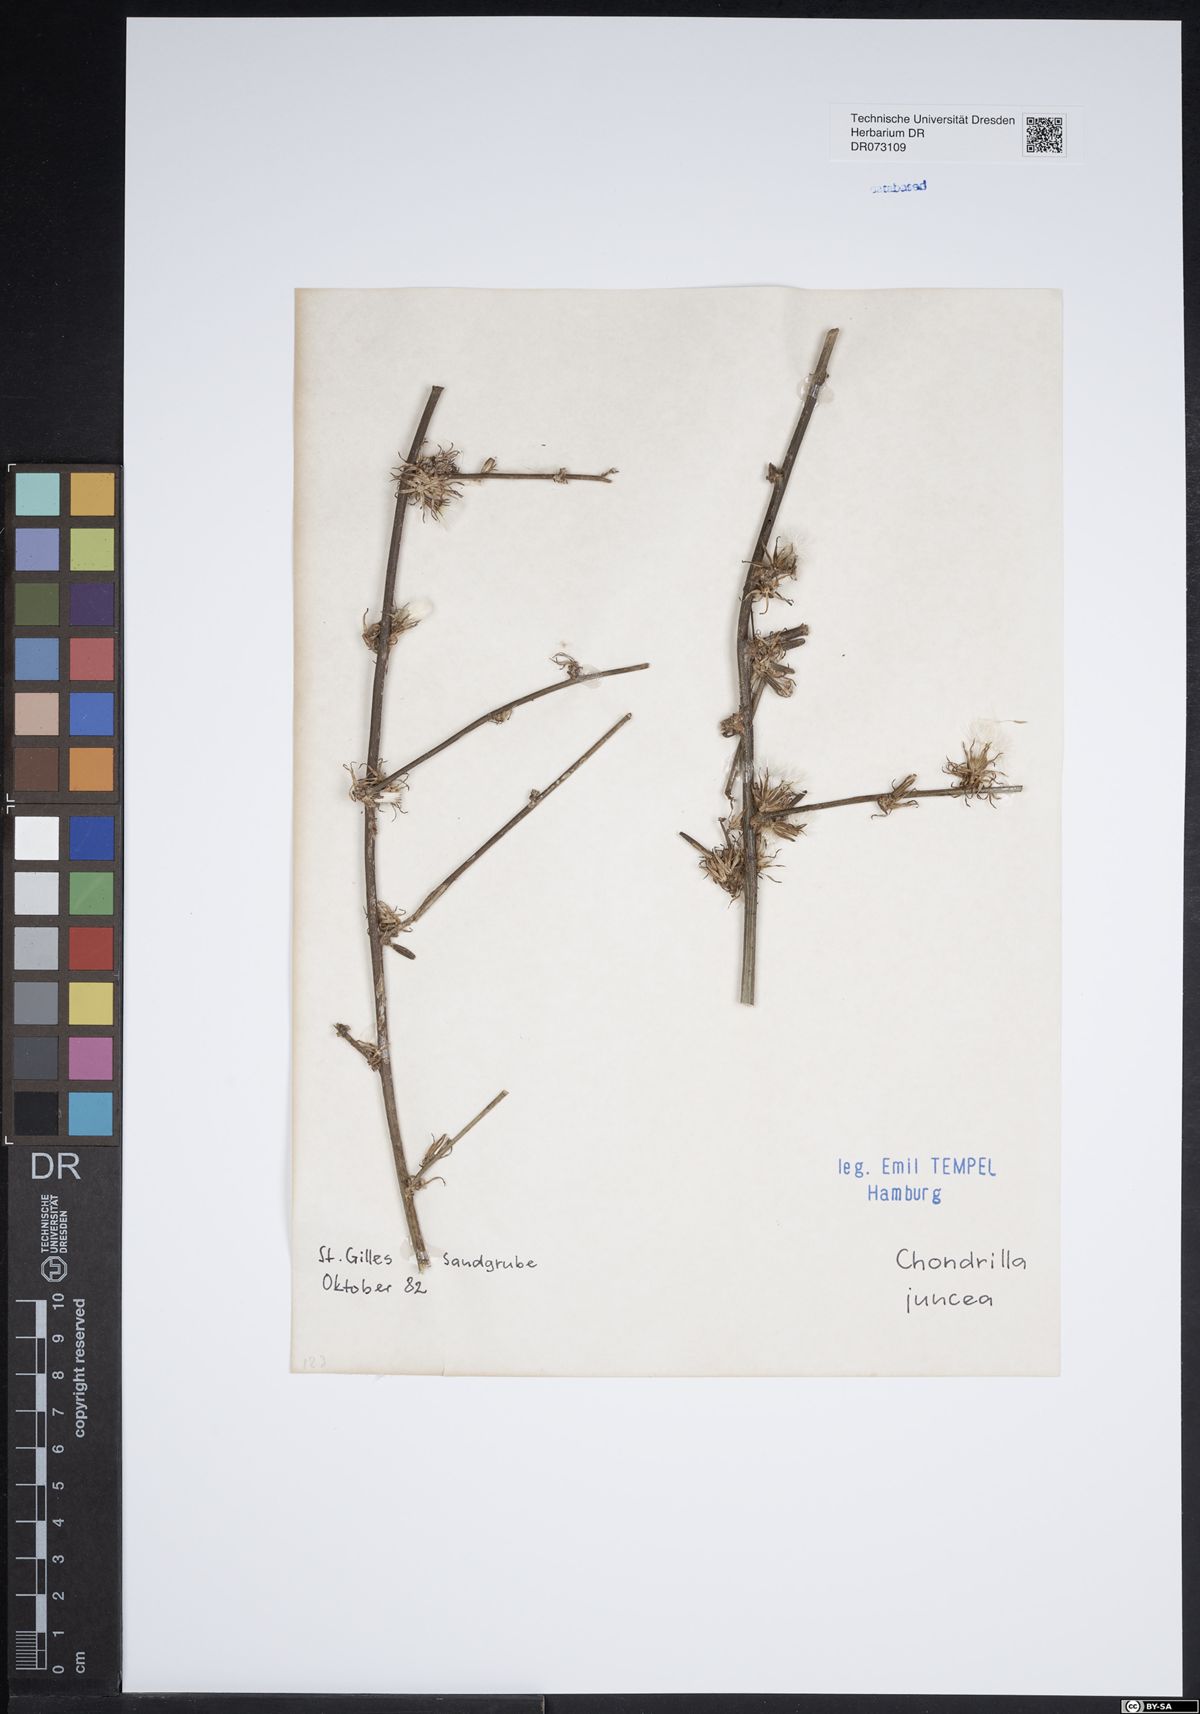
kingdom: Plantae
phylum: Tracheophyta
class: Magnoliopsida
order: Asterales
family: Asteraceae
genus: Chondrilla
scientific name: Chondrilla juncea
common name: Skeleton weed
